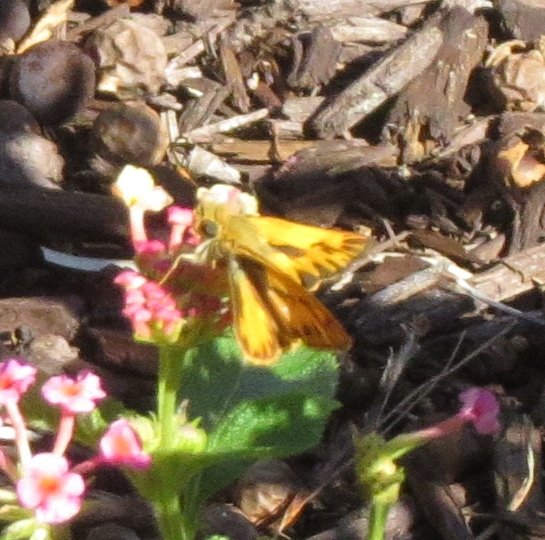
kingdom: Animalia
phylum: Arthropoda
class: Insecta
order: Lepidoptera
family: Hesperiidae
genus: Hylephila
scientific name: Hylephila phyleus
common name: Fiery Skipper
